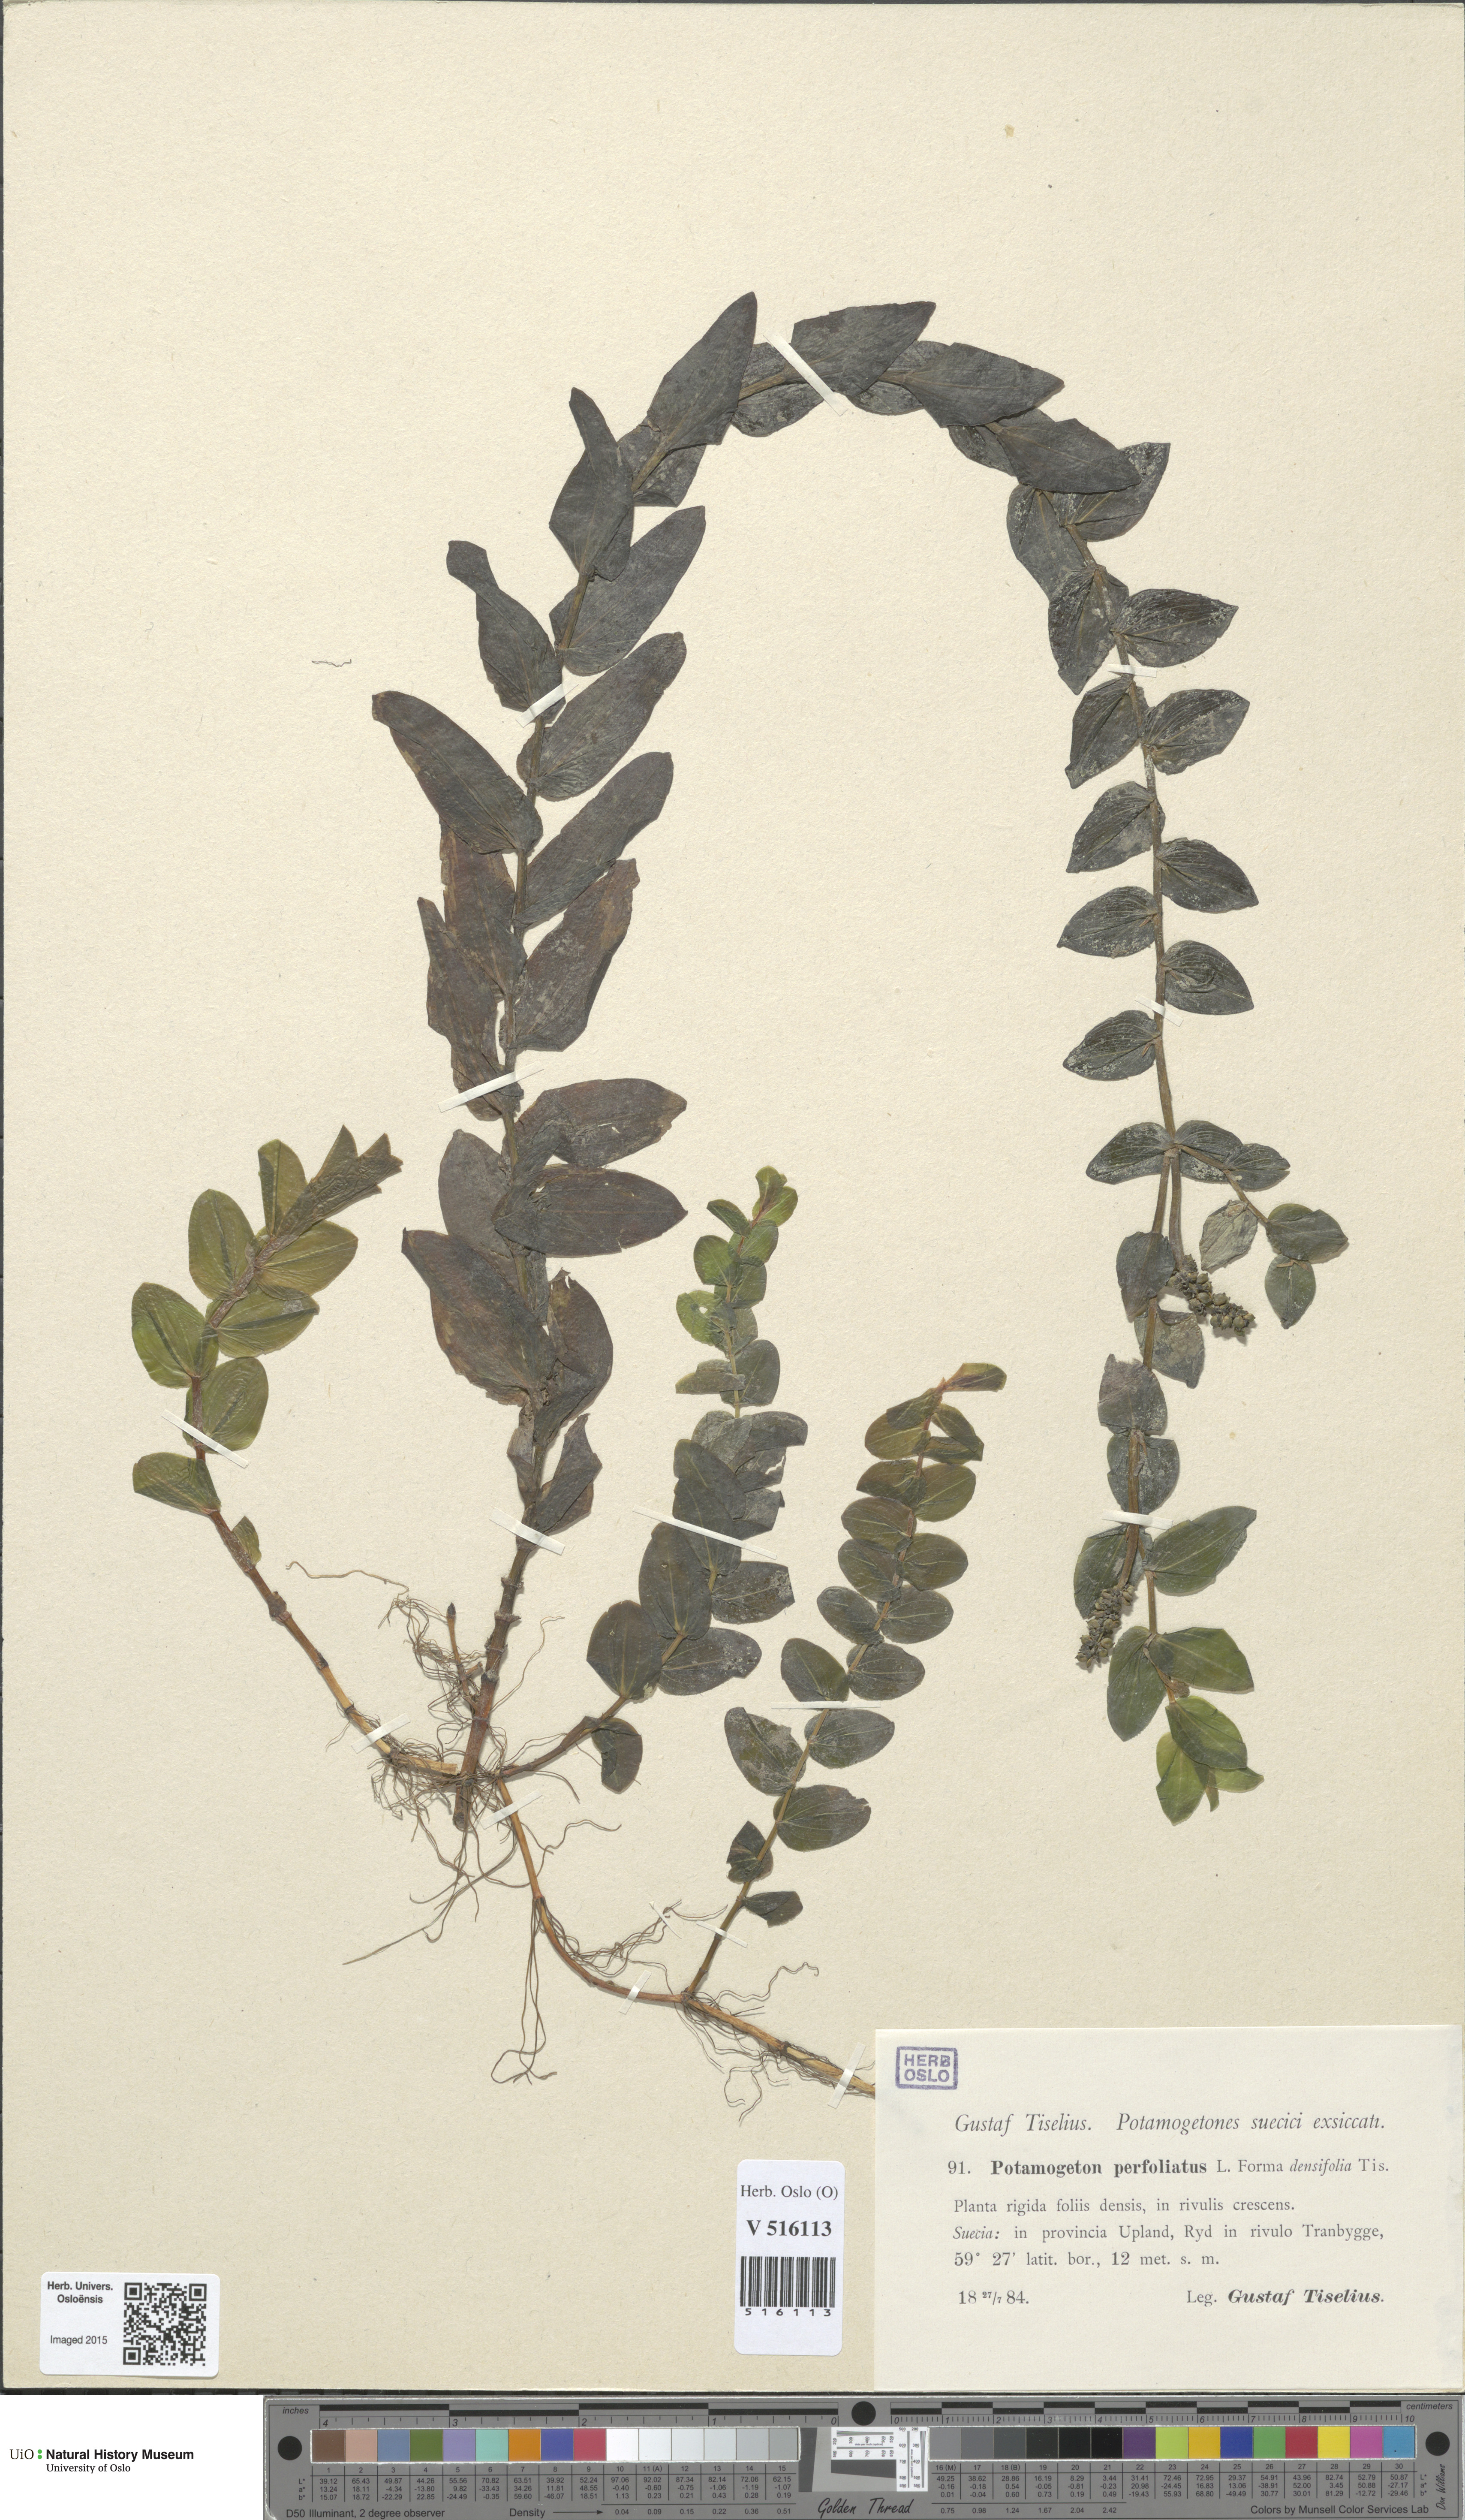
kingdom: Plantae
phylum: Tracheophyta
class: Liliopsida
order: Alismatales
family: Potamogetonaceae
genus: Potamogeton
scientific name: Potamogeton perfoliatus
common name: Perfoliate pondweed
